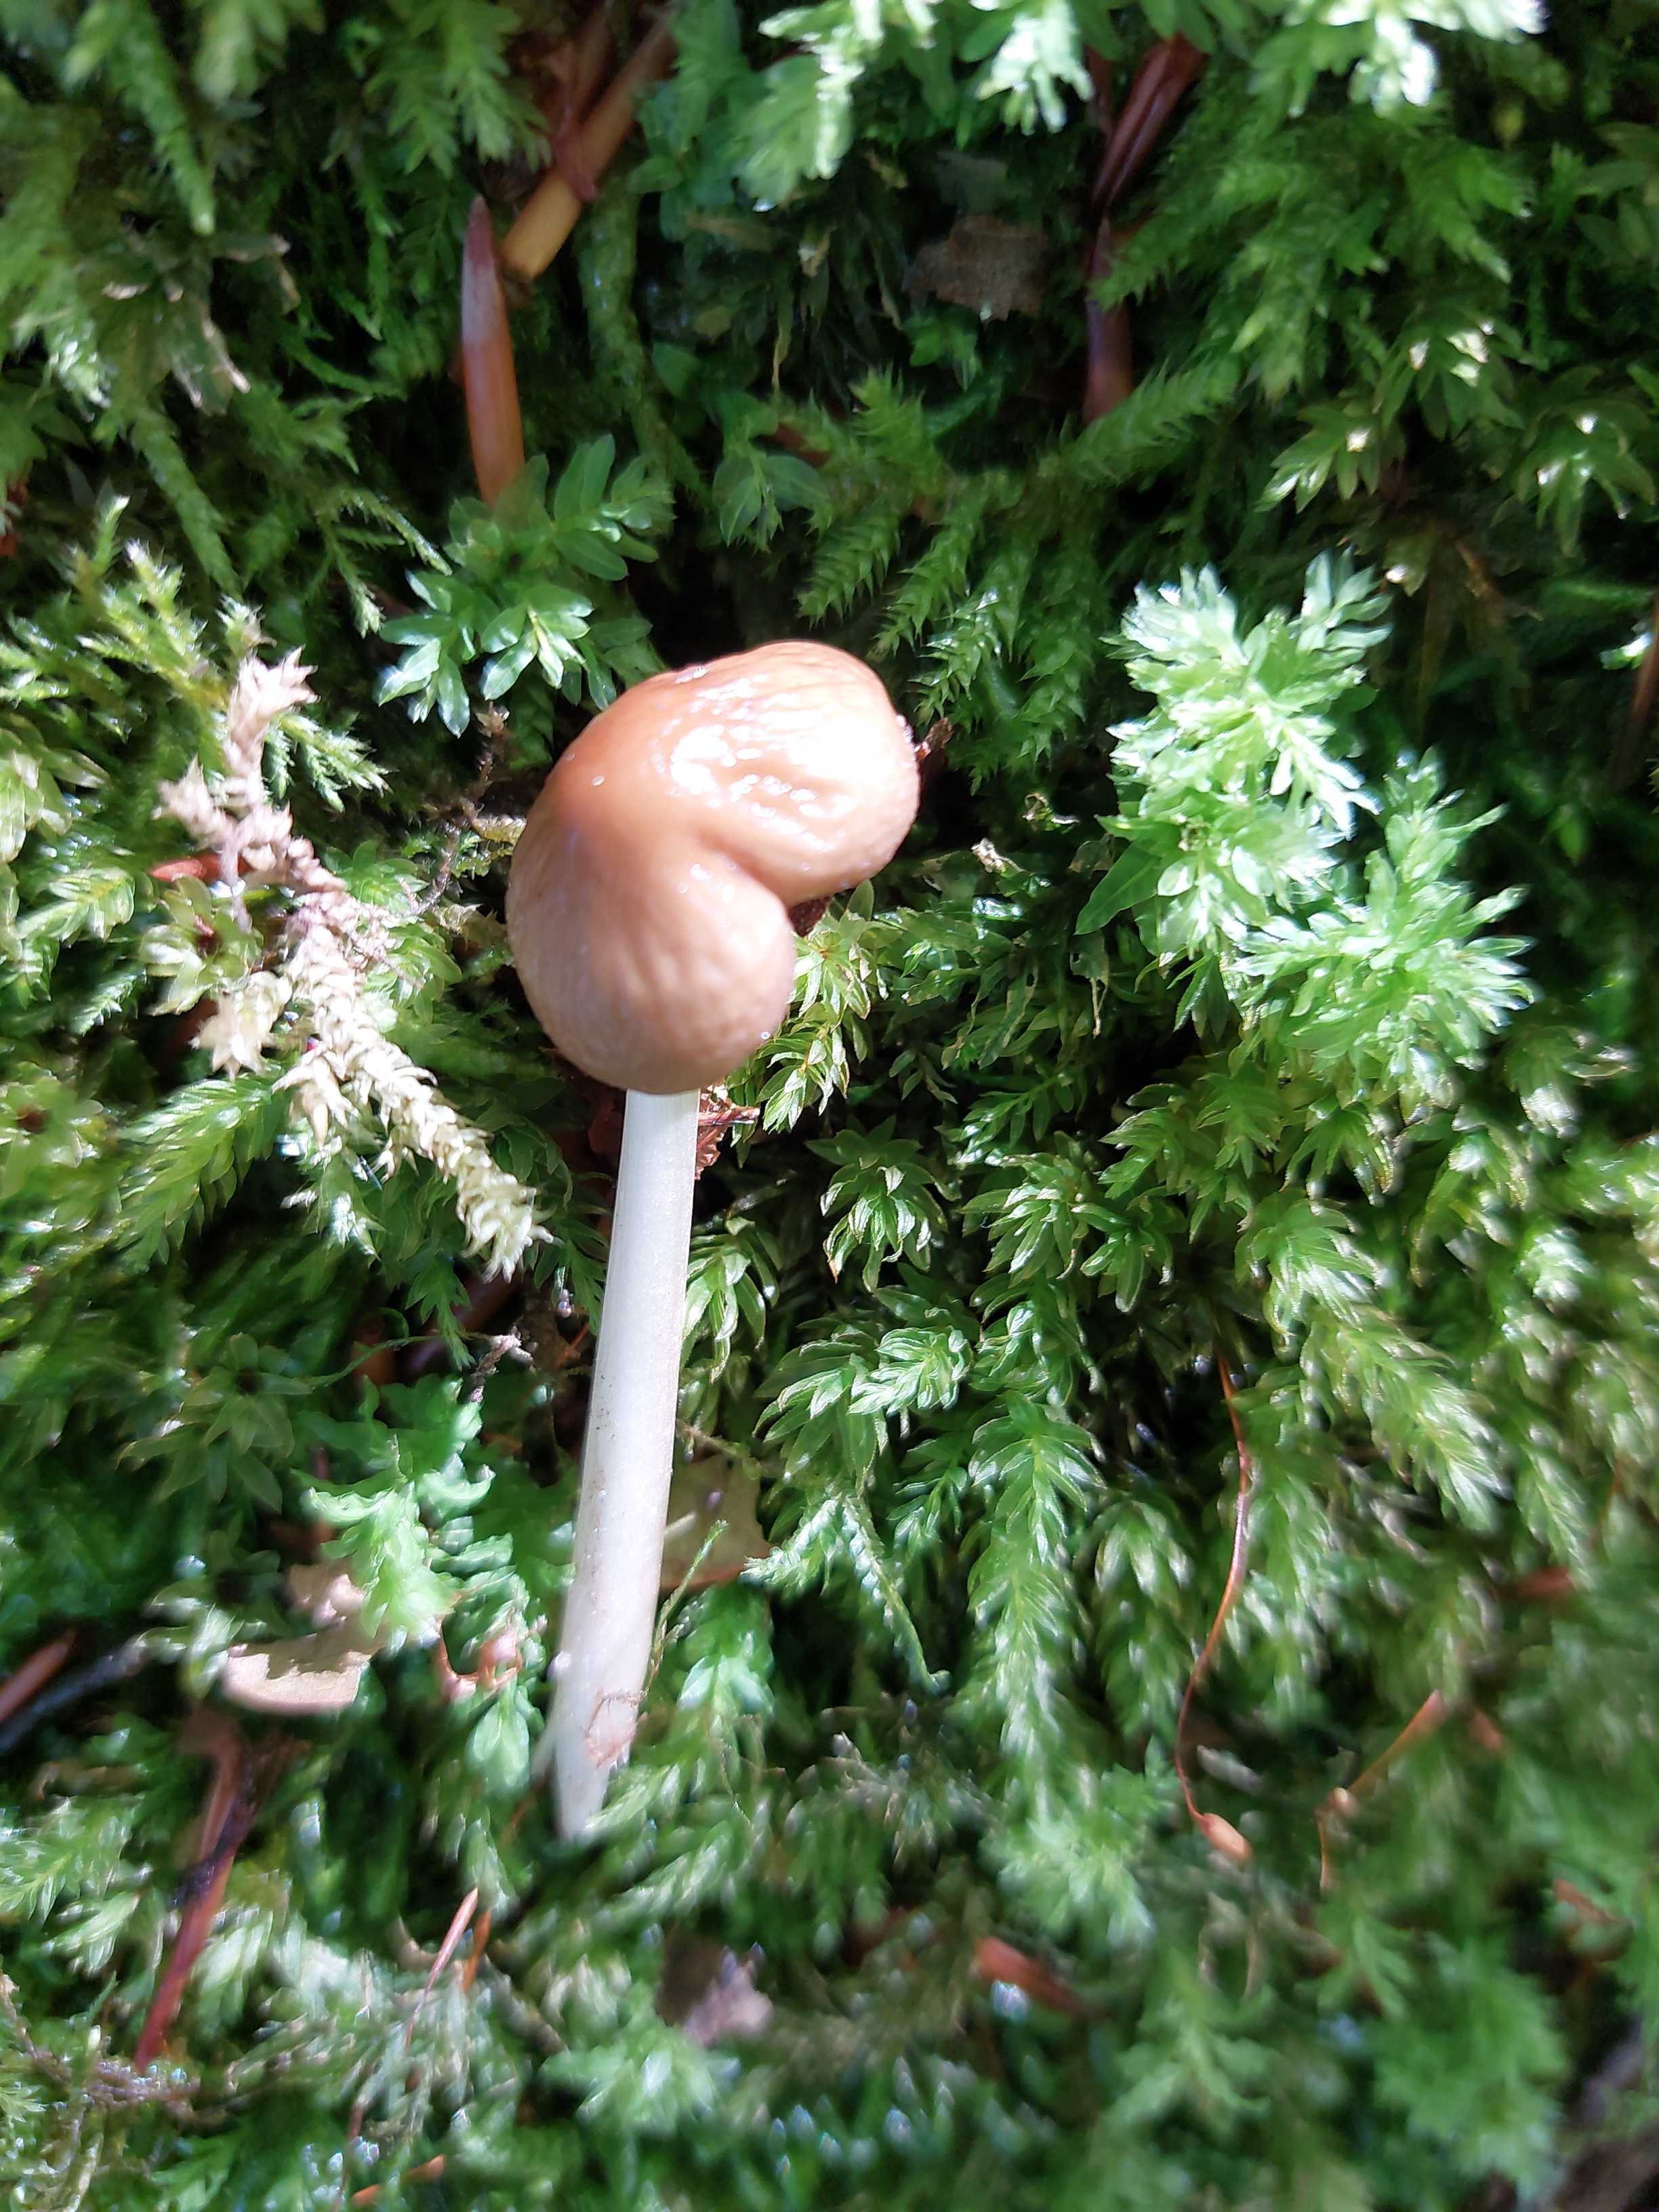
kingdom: Fungi
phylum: Basidiomycota
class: Agaricomycetes
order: Agaricales
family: Physalacriaceae
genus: Hymenopellis
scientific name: Hymenopellis radicata
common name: almindelig pælerodshat
